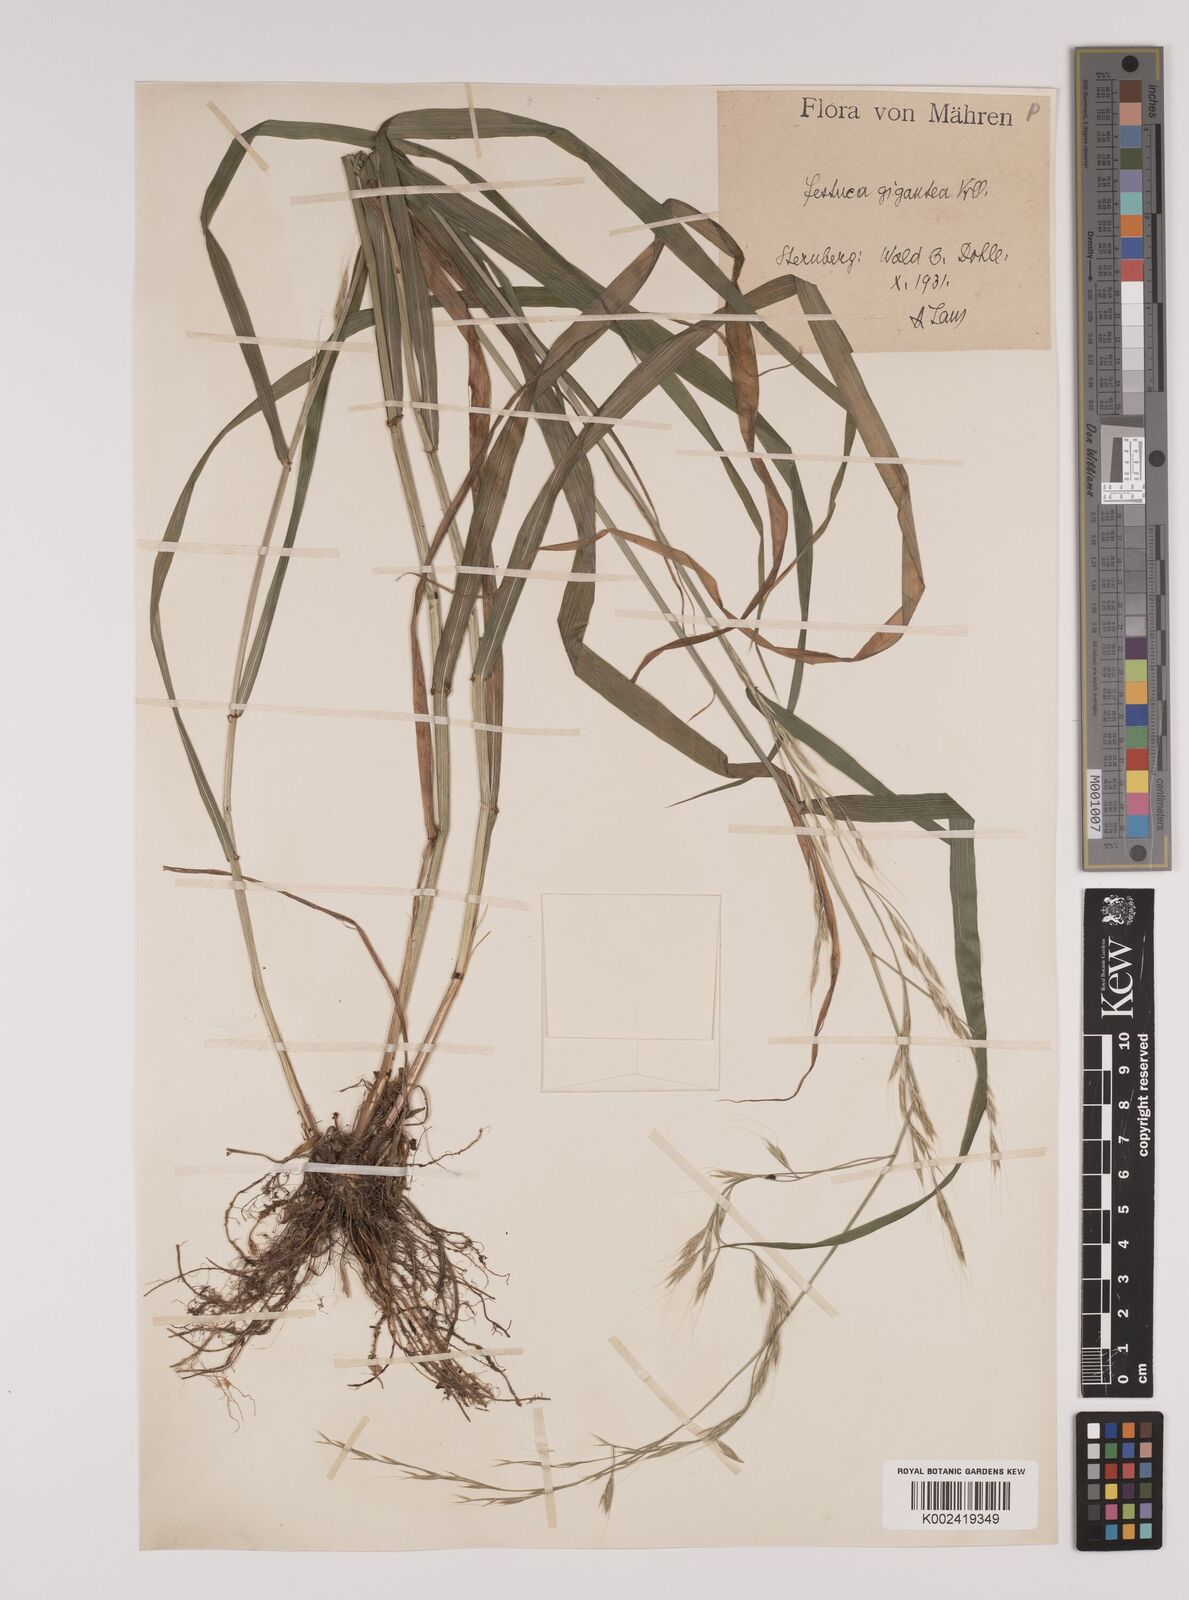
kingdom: Plantae
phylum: Tracheophyta
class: Liliopsida
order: Poales
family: Poaceae
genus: Lolium
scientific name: Lolium giganteum
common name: Giant fescue
